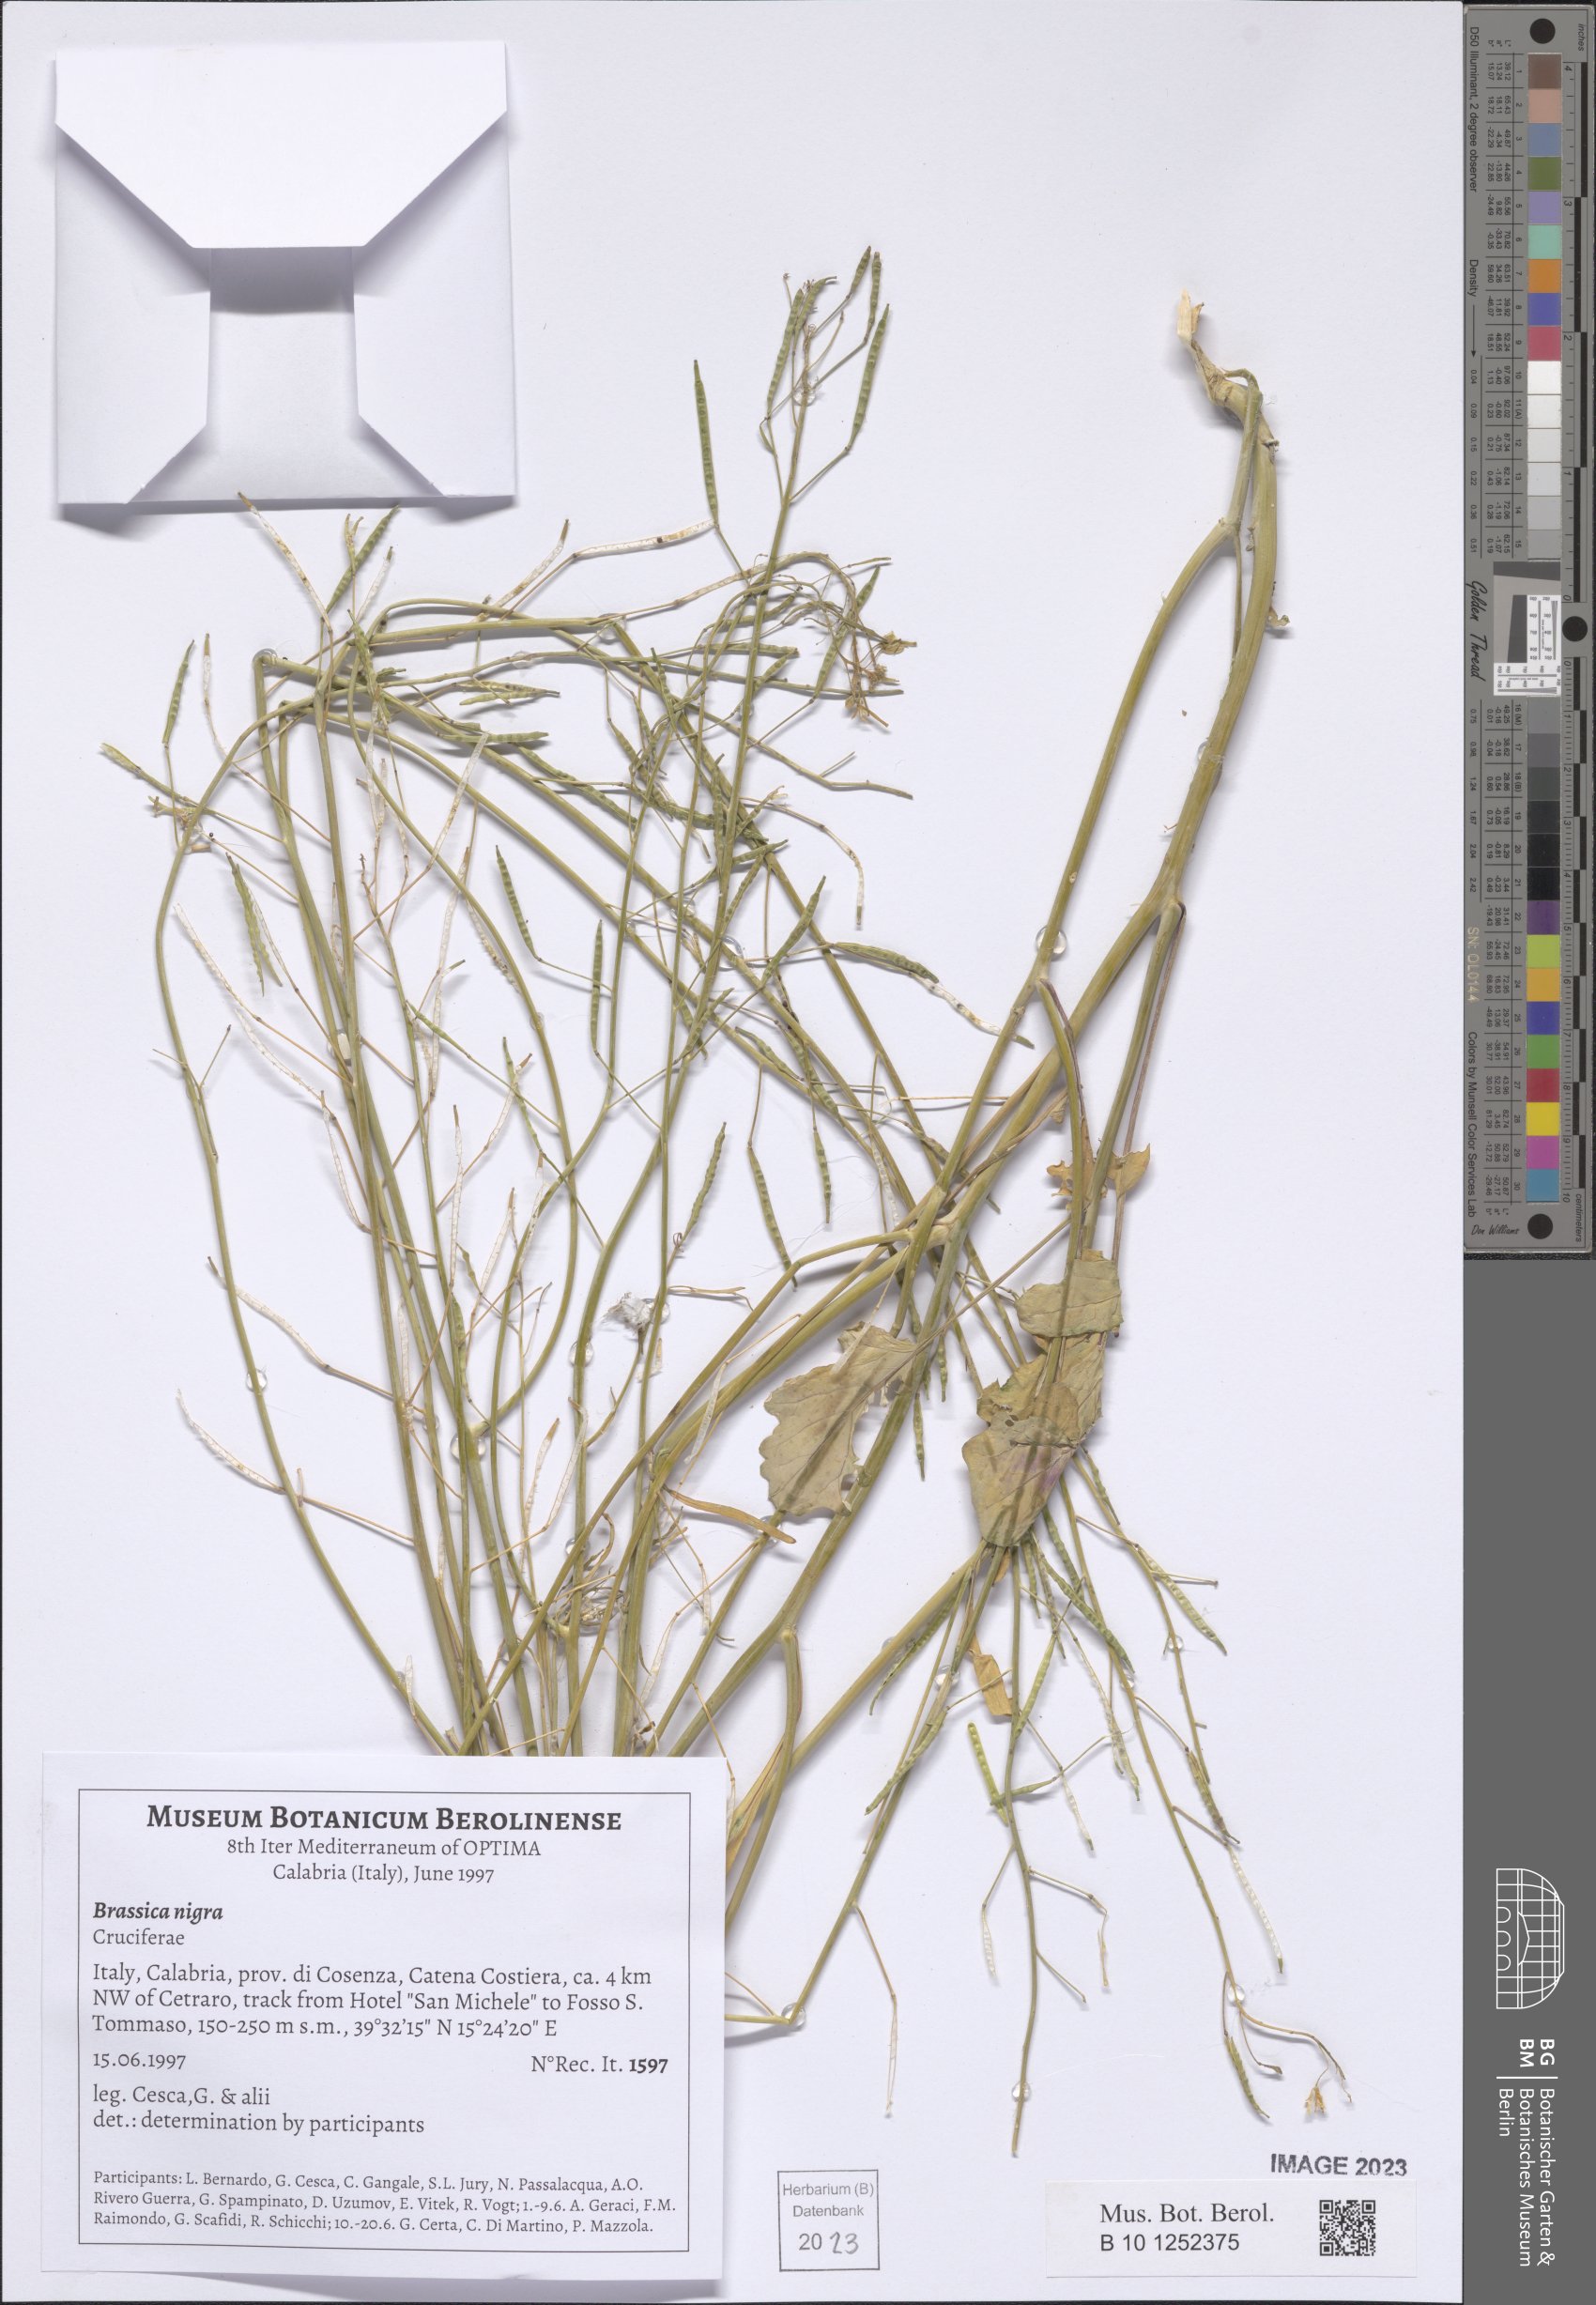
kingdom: Plantae
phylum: Tracheophyta
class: Magnoliopsida
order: Brassicales
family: Brassicaceae
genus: Brassica
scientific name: Brassica nigra
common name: Black mustard
